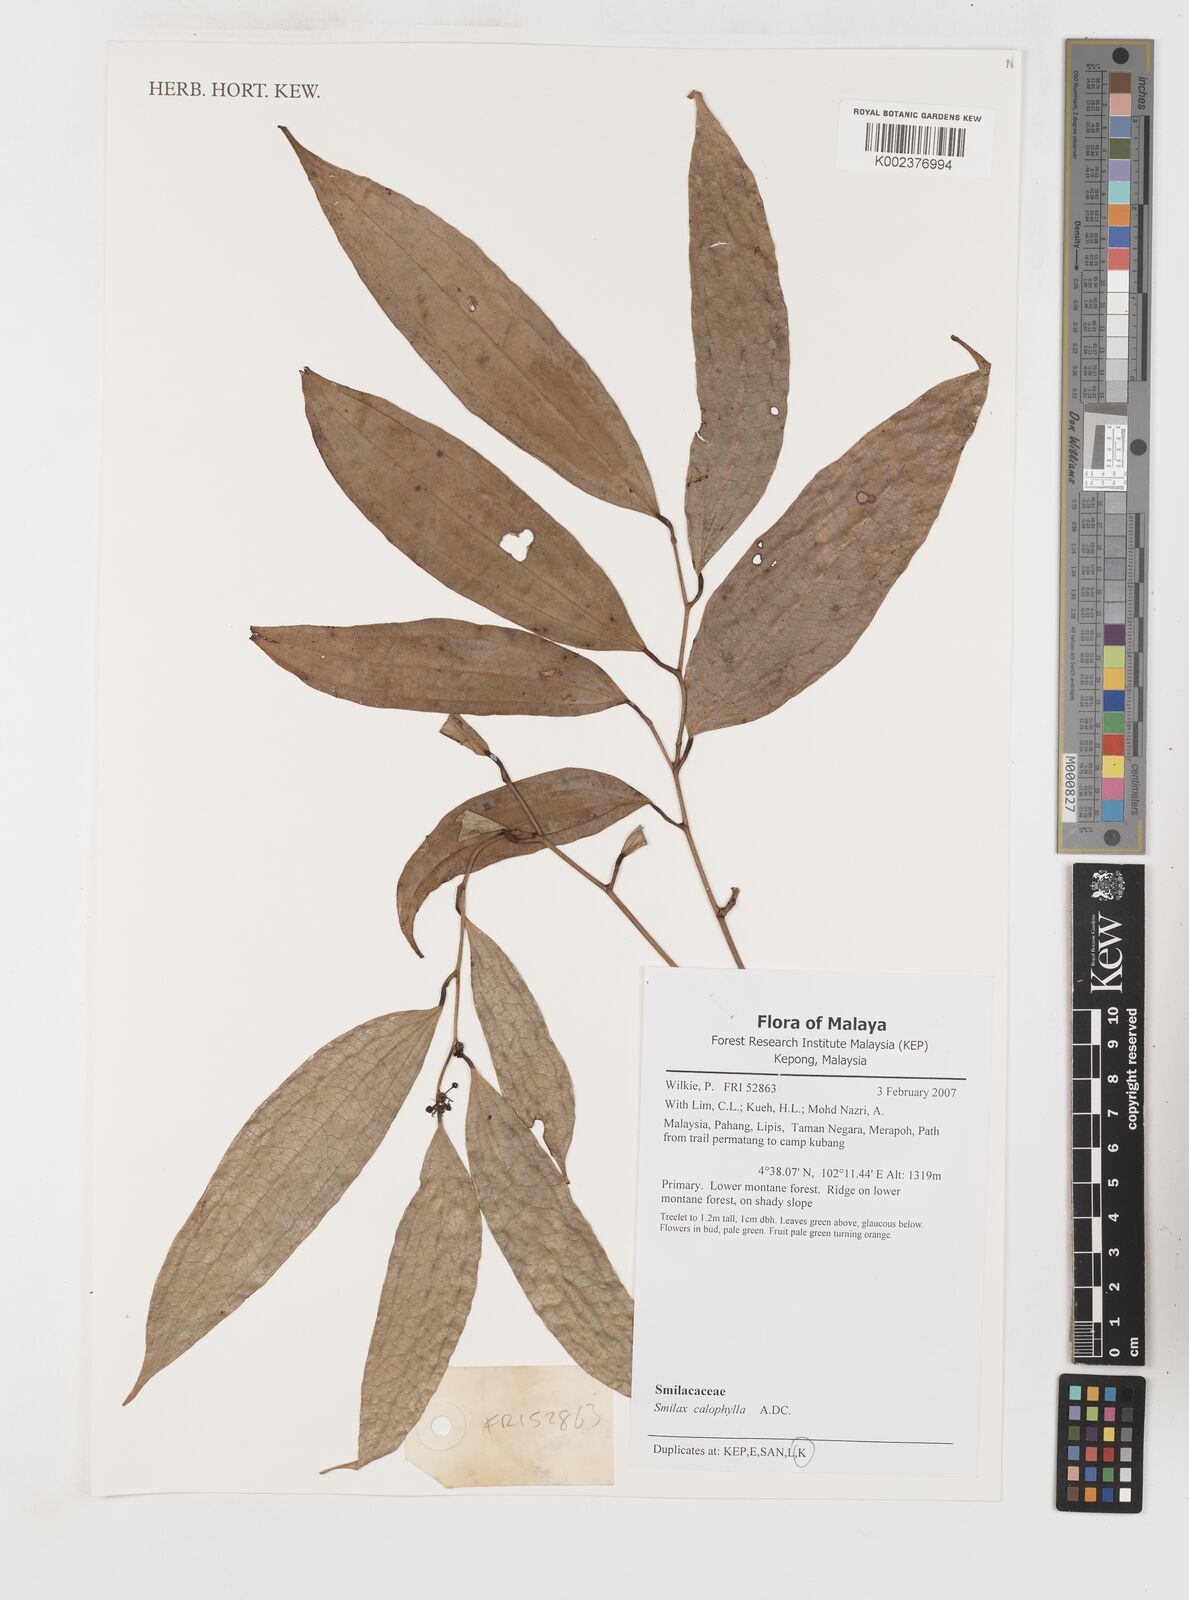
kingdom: Plantae
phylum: Tracheophyta
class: Liliopsida
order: Liliales
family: Smilacaceae
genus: Smilax
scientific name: Smilax calophylla
